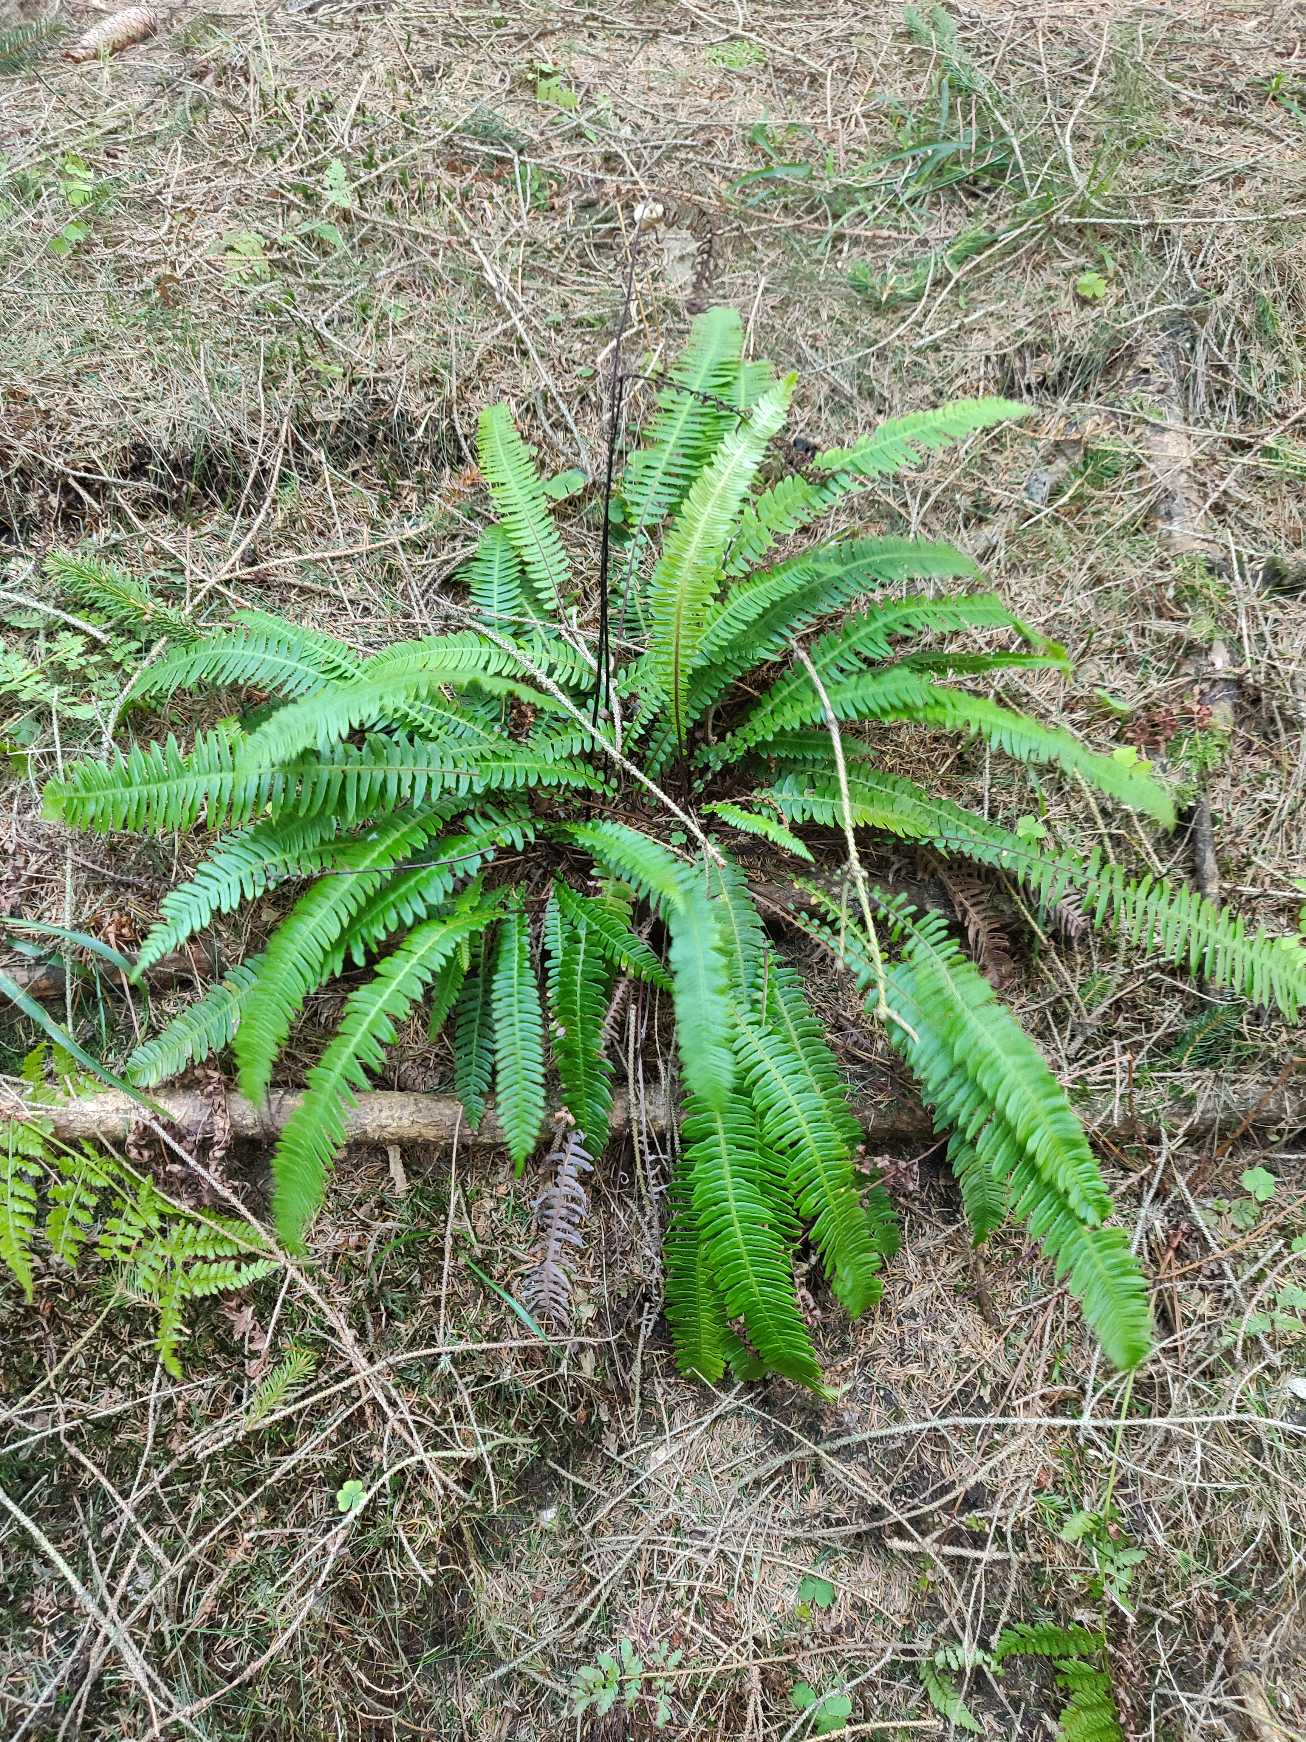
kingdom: Plantae
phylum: Tracheophyta
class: Polypodiopsida
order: Polypodiales
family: Blechnaceae
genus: Struthiopteris
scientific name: Struthiopteris spicant
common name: Kambregne
